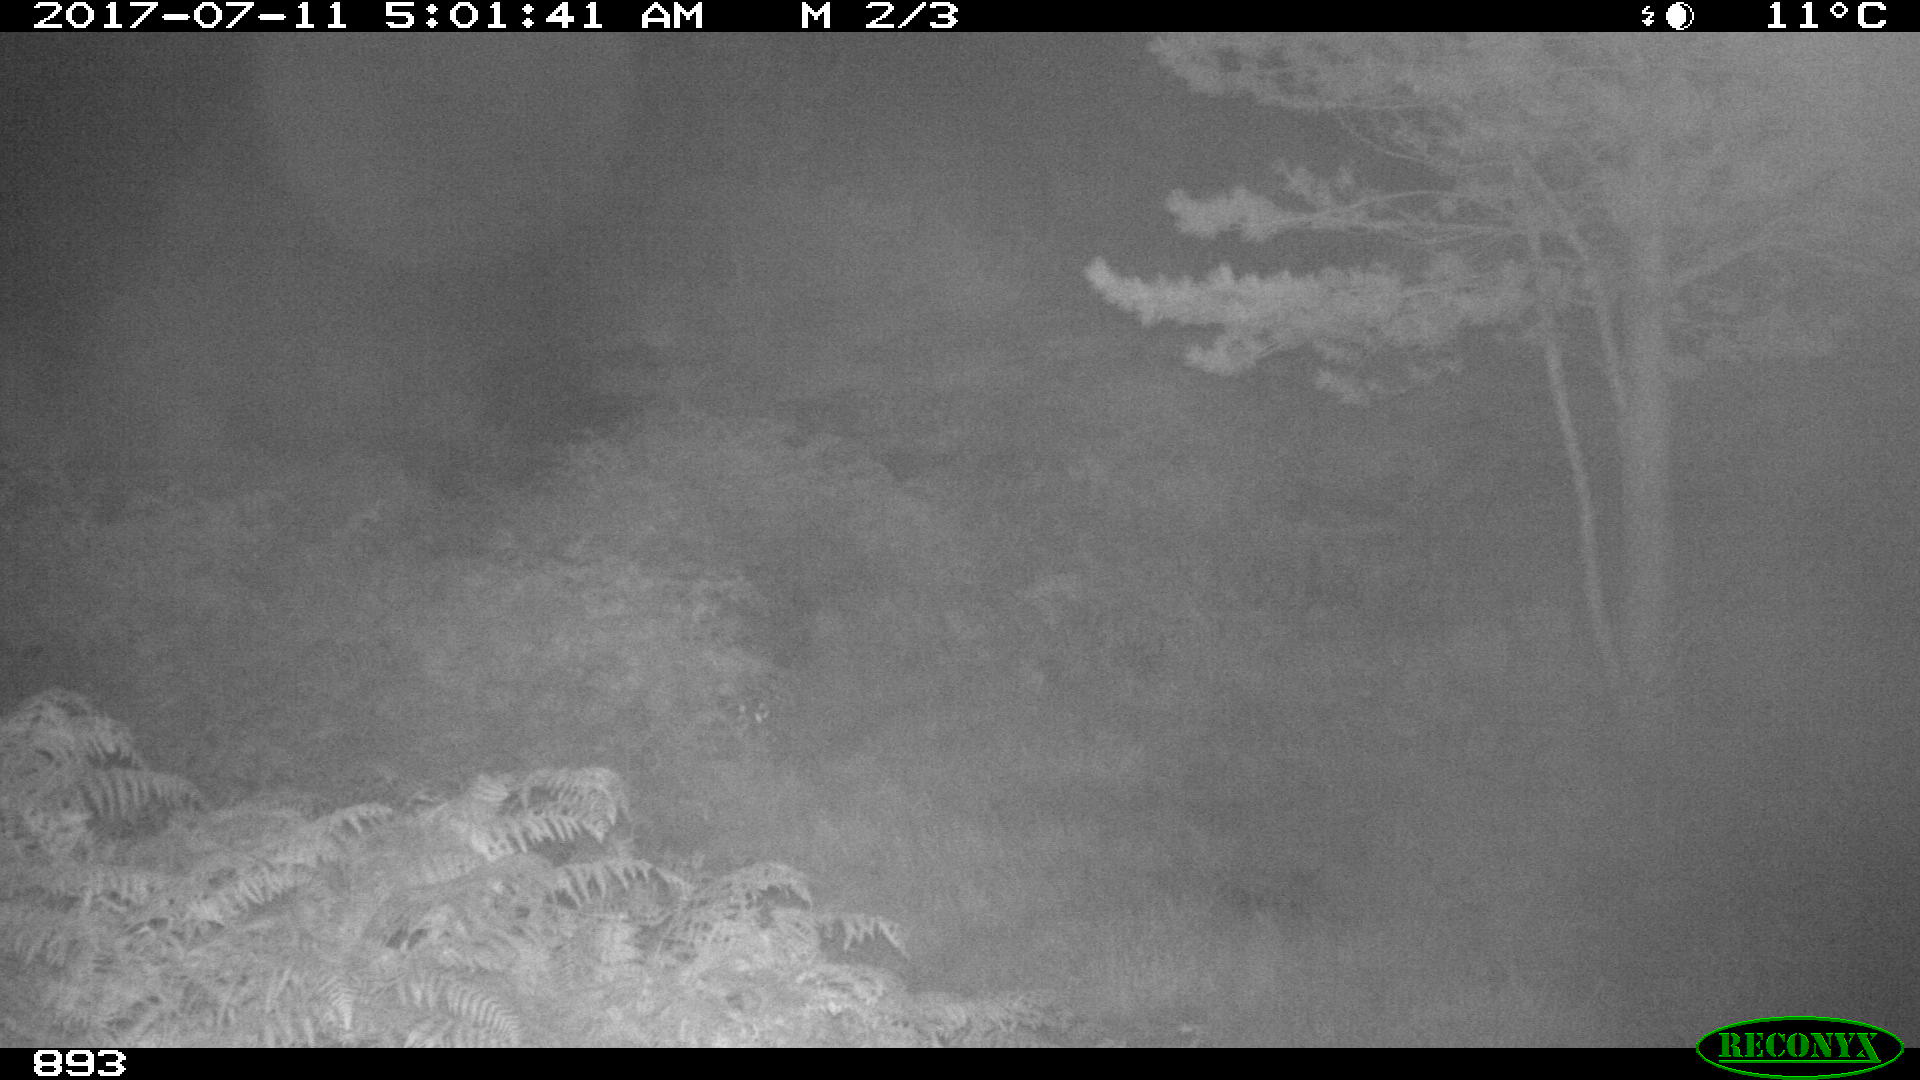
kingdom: Animalia
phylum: Chordata
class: Mammalia
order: Perissodactyla
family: Equidae
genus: Equus
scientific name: Equus caballus
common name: Horse
